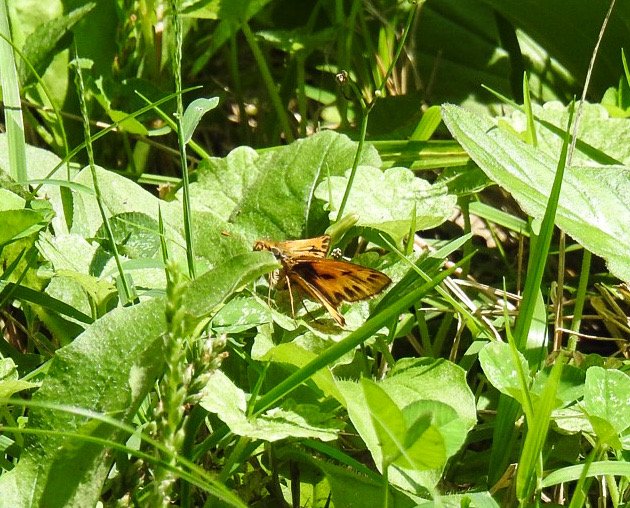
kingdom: Animalia
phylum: Arthropoda
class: Insecta
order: Lepidoptera
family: Hesperiidae
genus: Hylephila
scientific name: Hylephila phyleus
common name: Fiery Skipper
